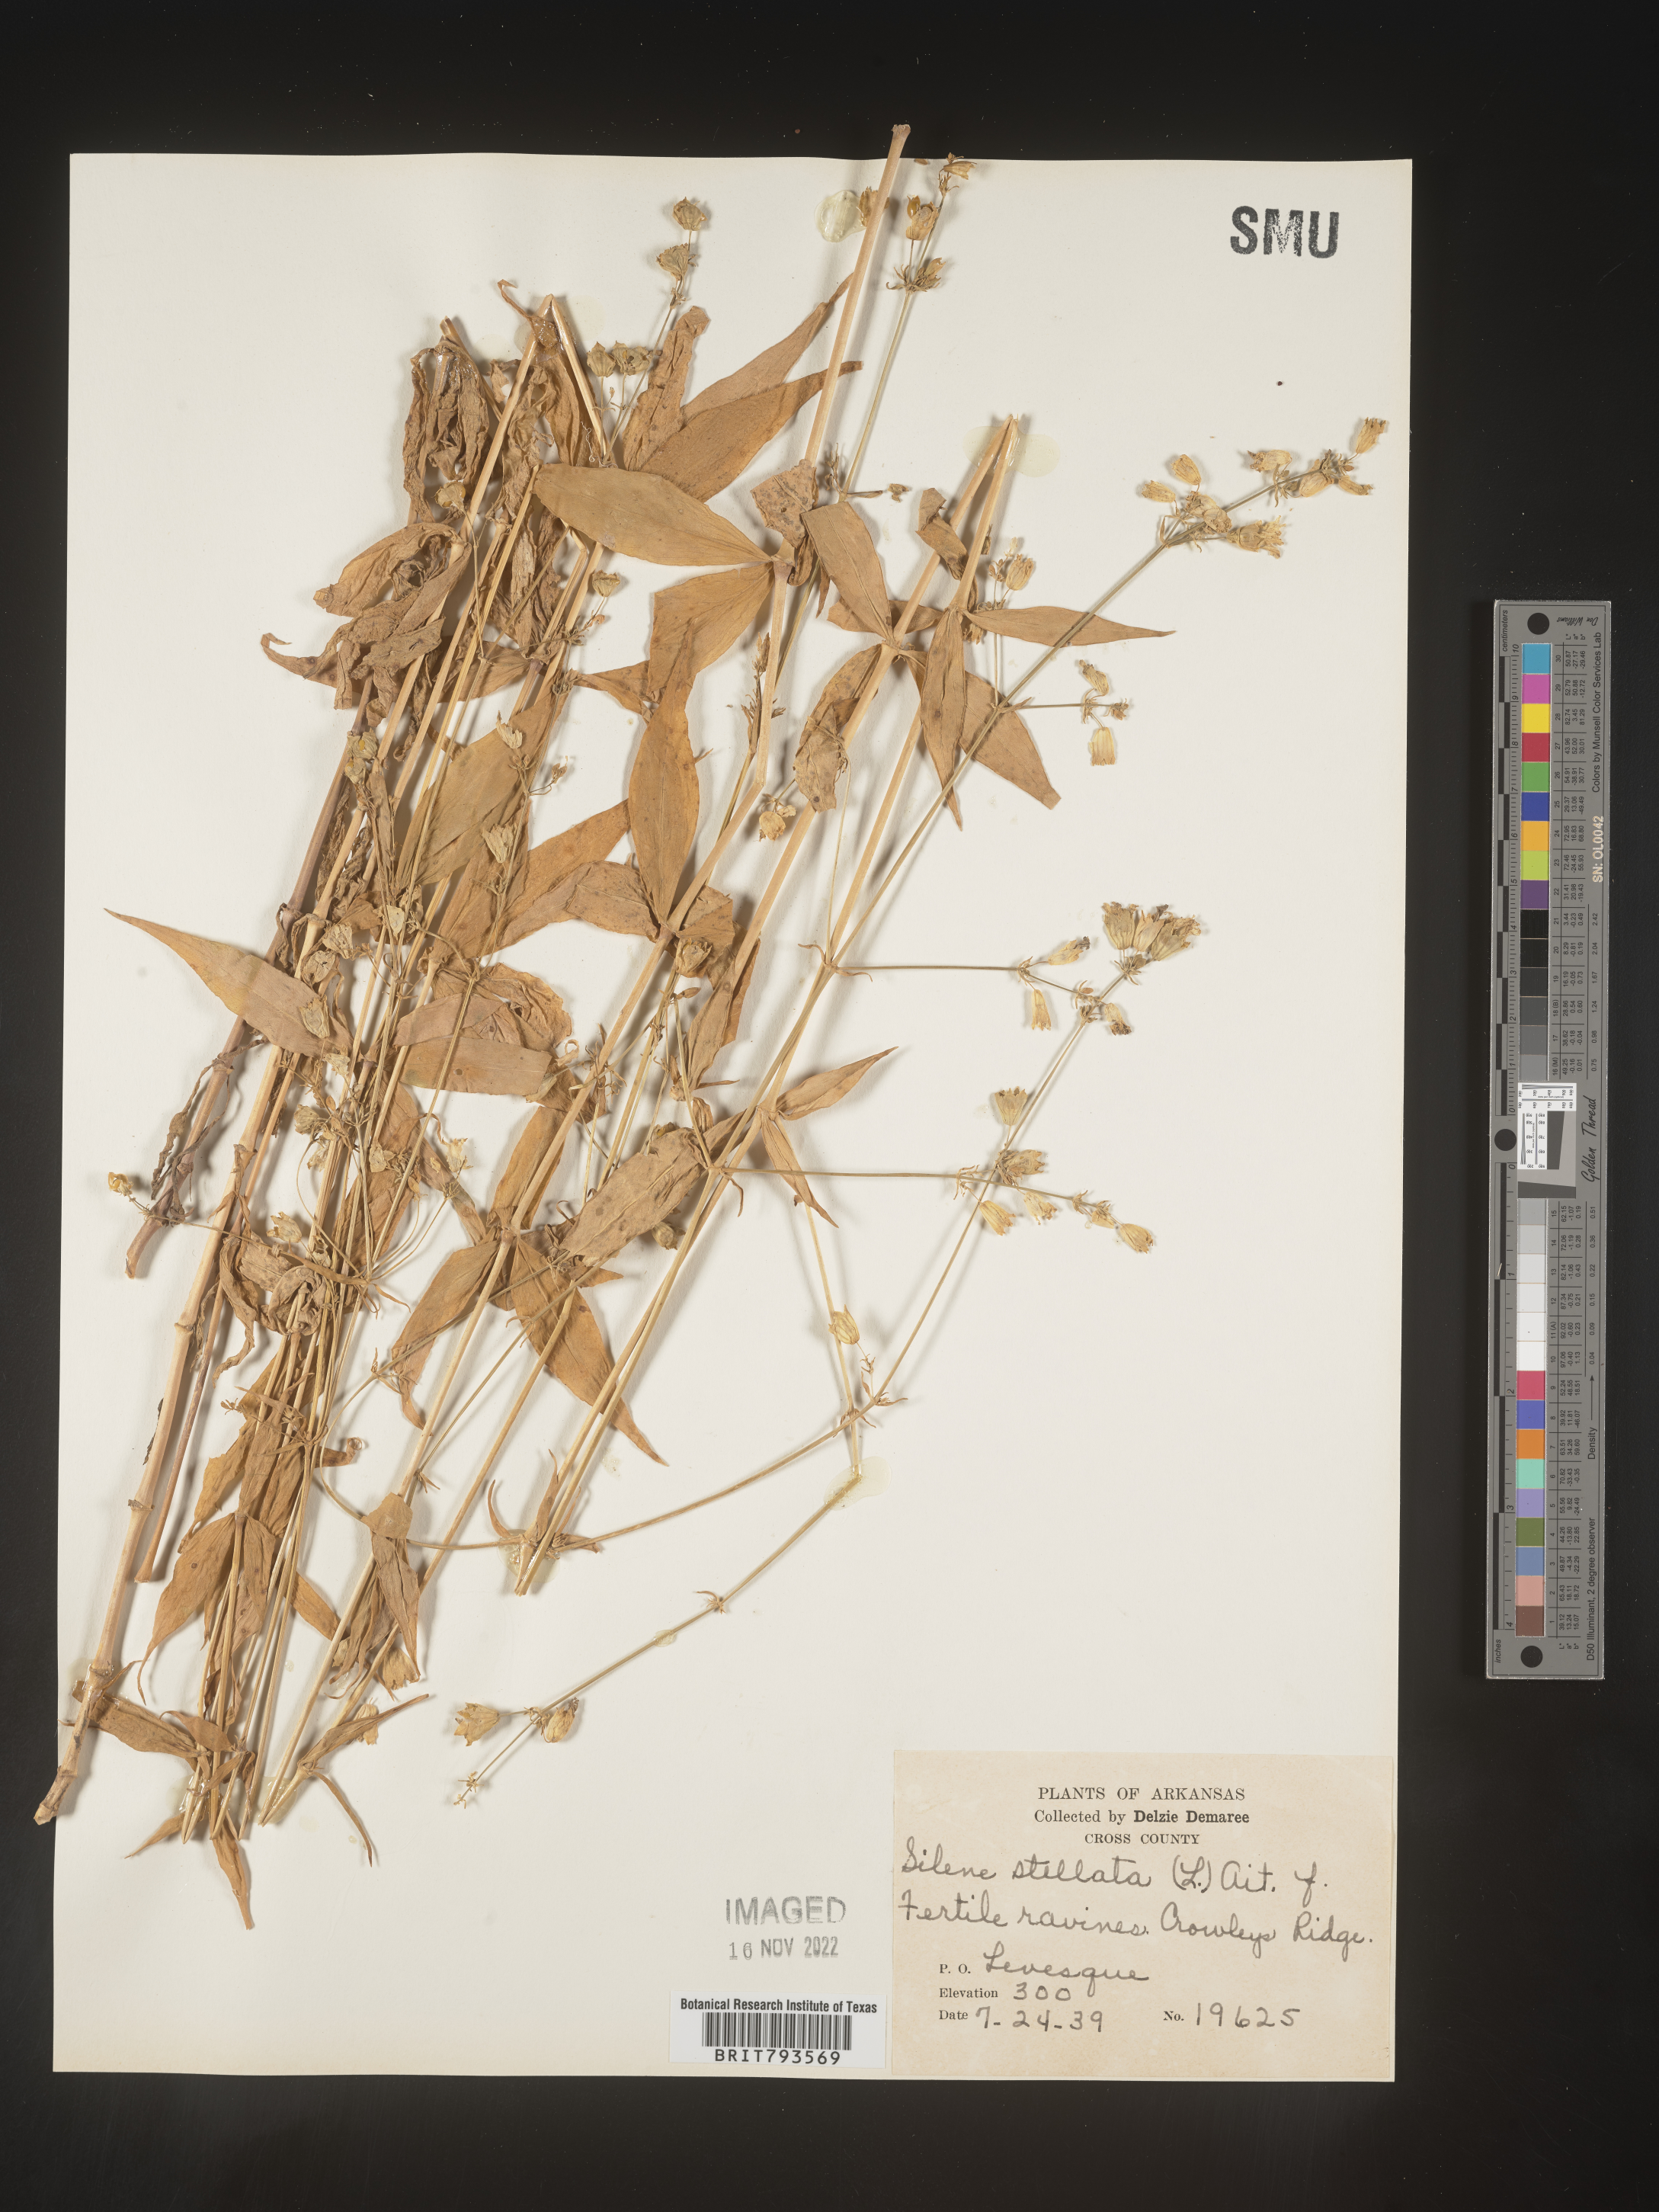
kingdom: Plantae
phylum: Tracheophyta
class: Magnoliopsida
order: Caryophyllales
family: Caryophyllaceae
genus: Silene
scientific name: Silene stellata
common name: Starry campion
